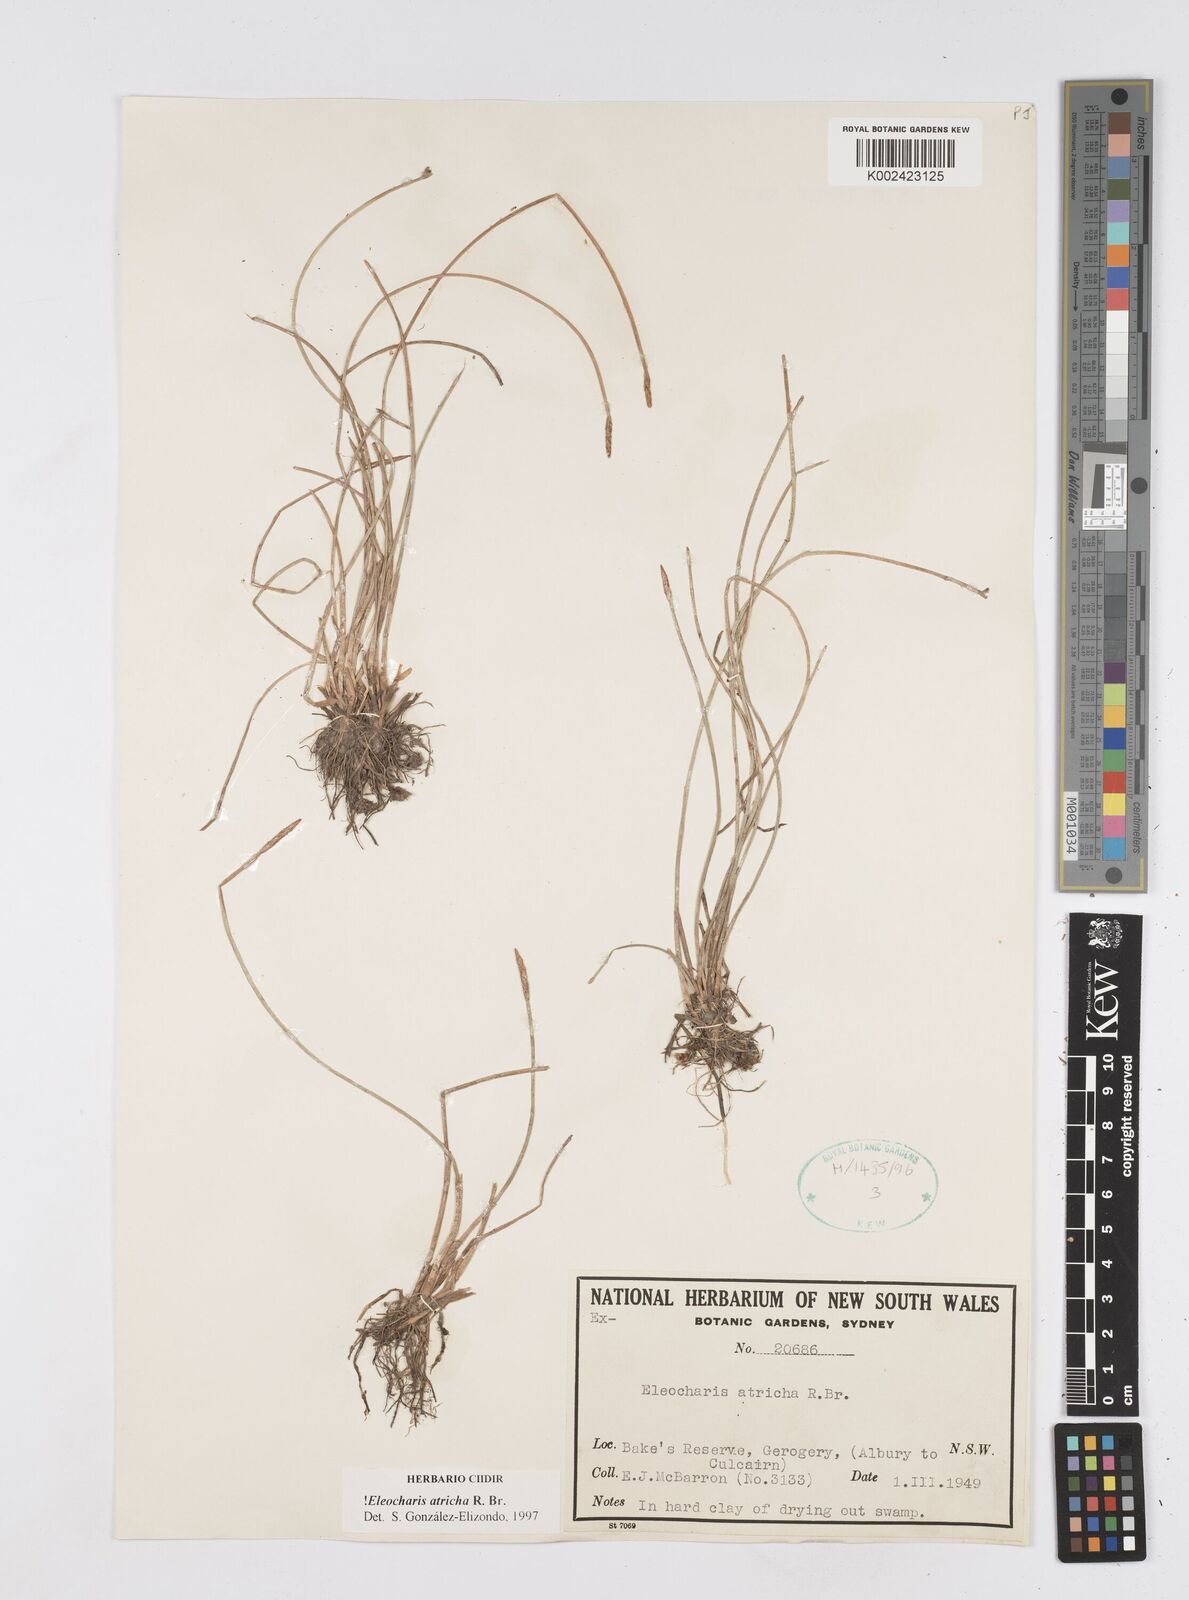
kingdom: Plantae
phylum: Tracheophyta
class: Liliopsida
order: Poales
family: Cyperaceae
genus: Eleocharis
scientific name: Eleocharis acicularis
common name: Needle spike-rush
